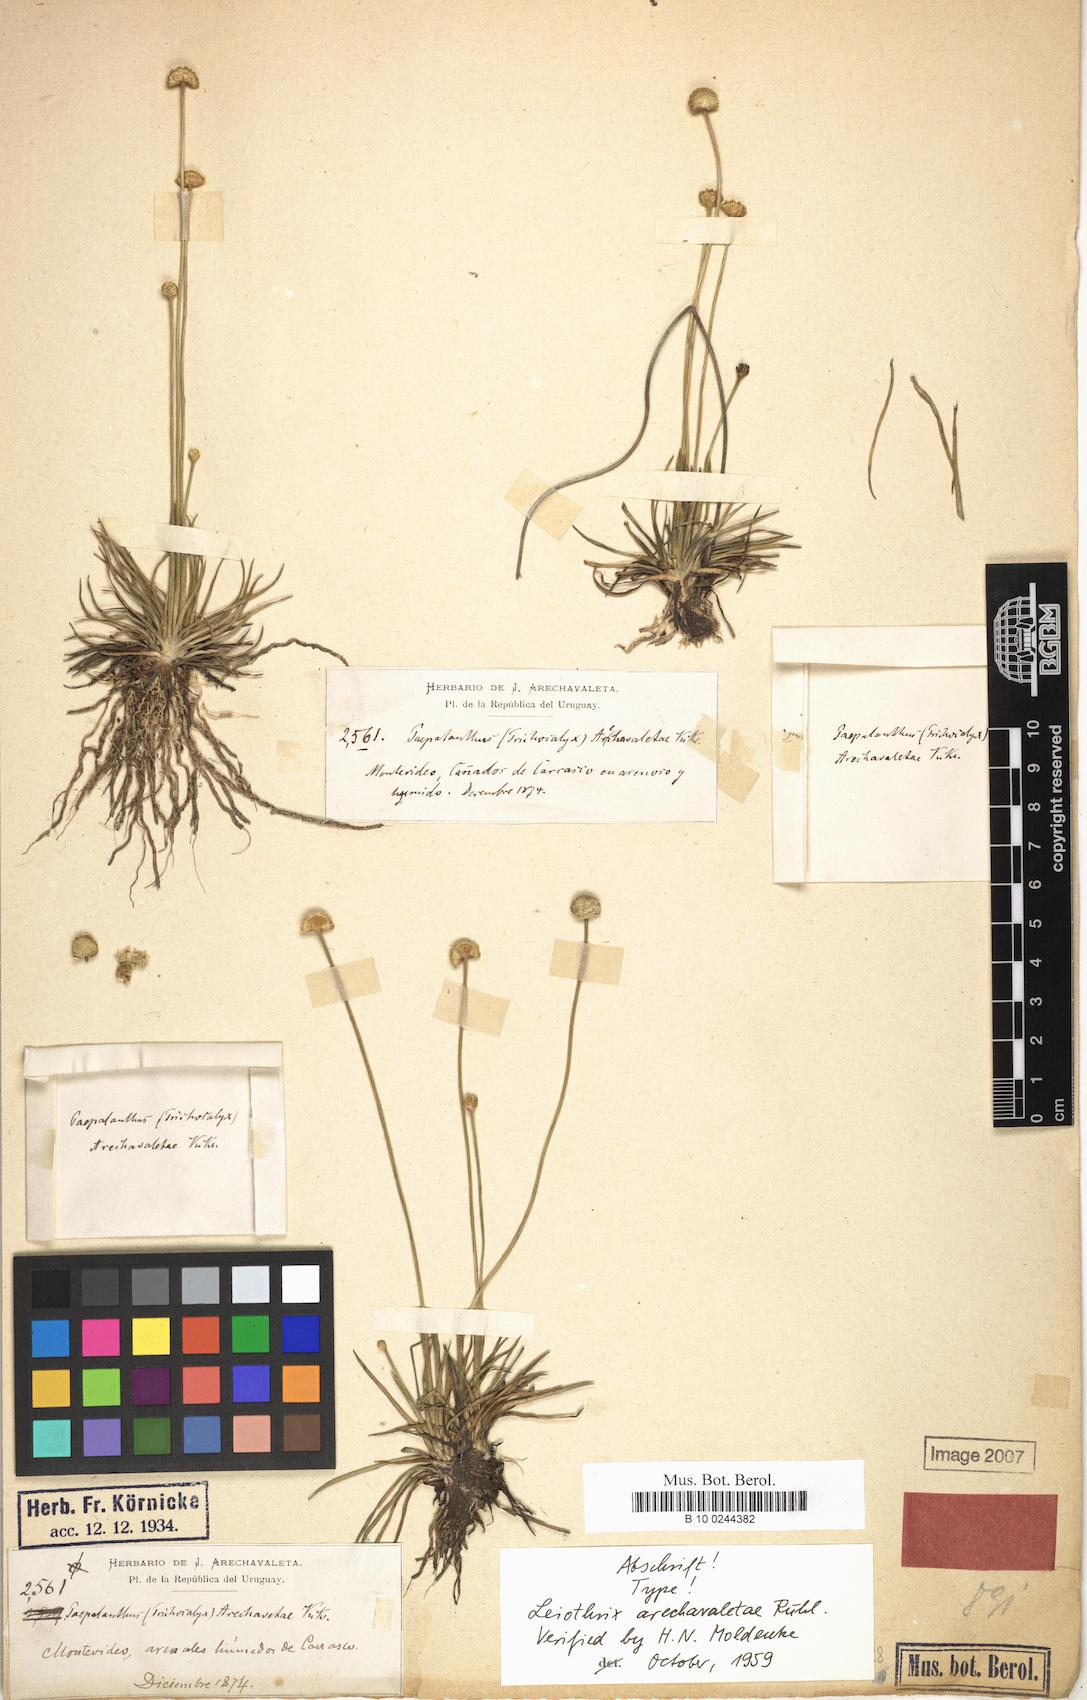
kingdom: Plantae
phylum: Tracheophyta
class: Liliopsida
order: Poales
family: Eriocaulaceae
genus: Syngonanthus
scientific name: Syngonanthus chrysanthus
